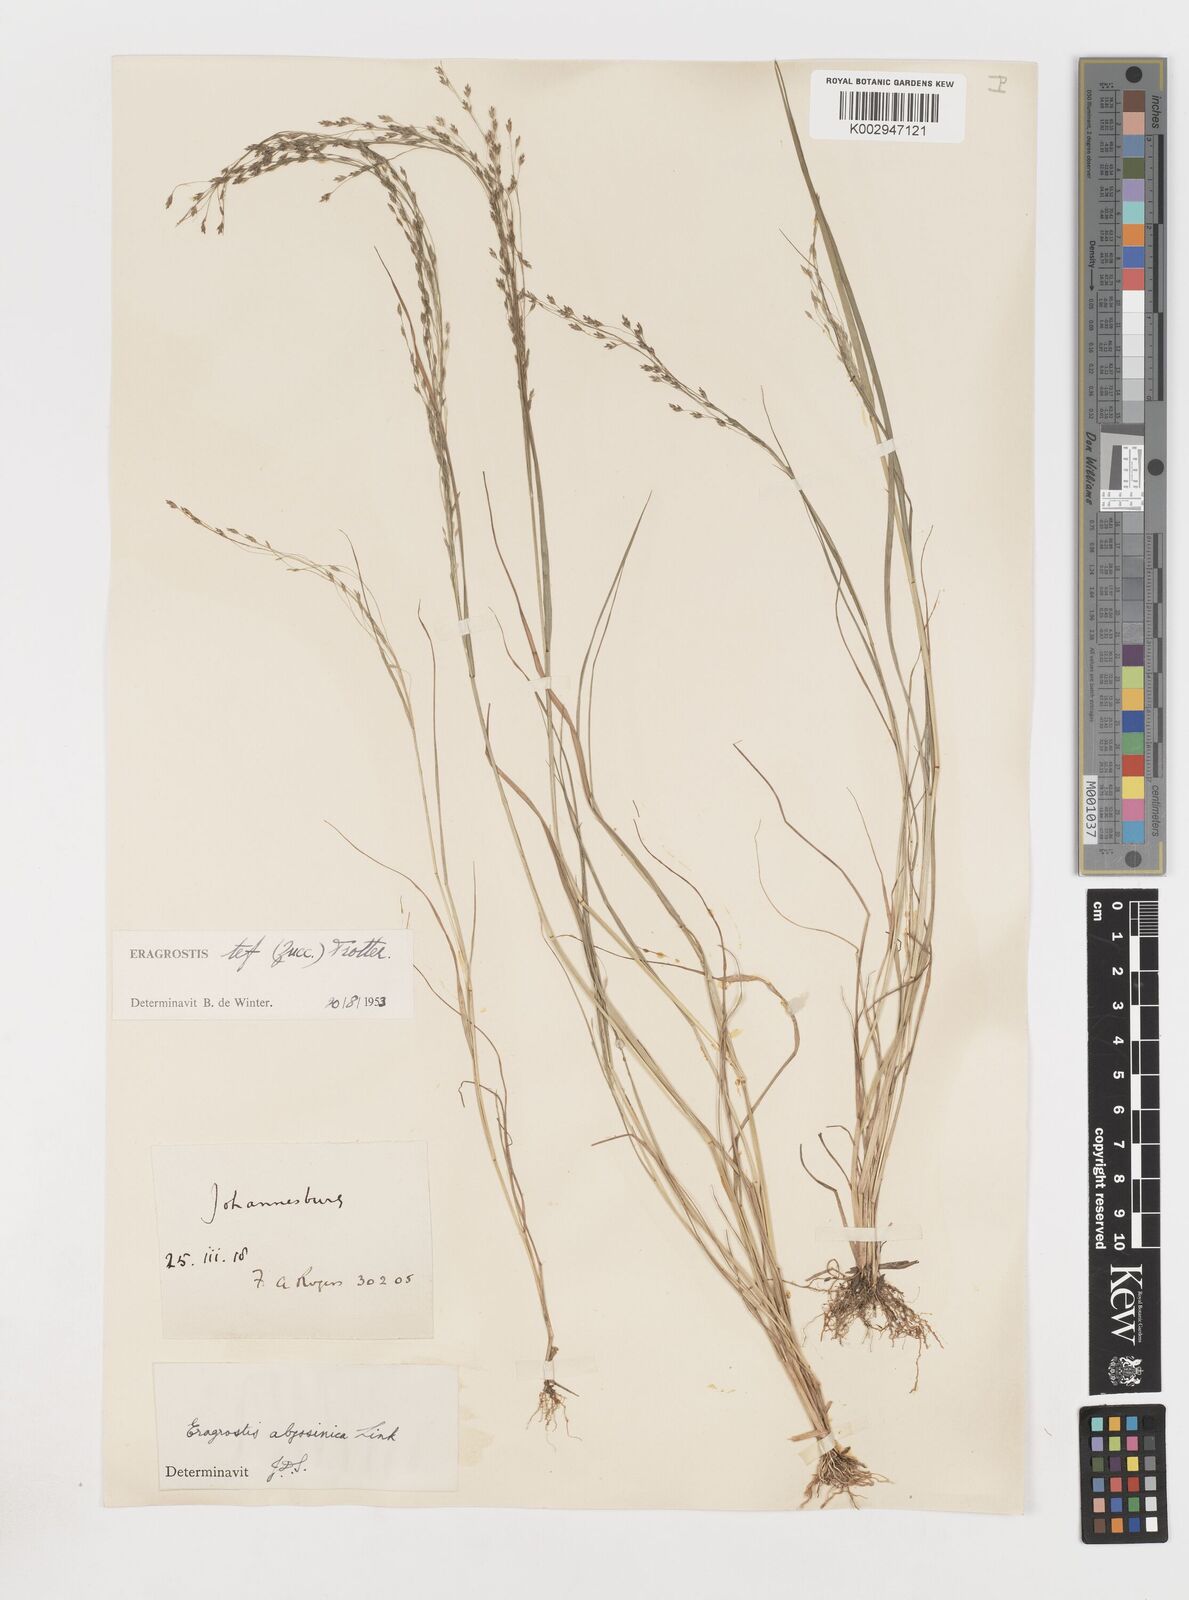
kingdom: Plantae
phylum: Tracheophyta
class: Liliopsida
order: Poales
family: Poaceae
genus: Eragrostis
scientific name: Eragrostis tef
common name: Teff
